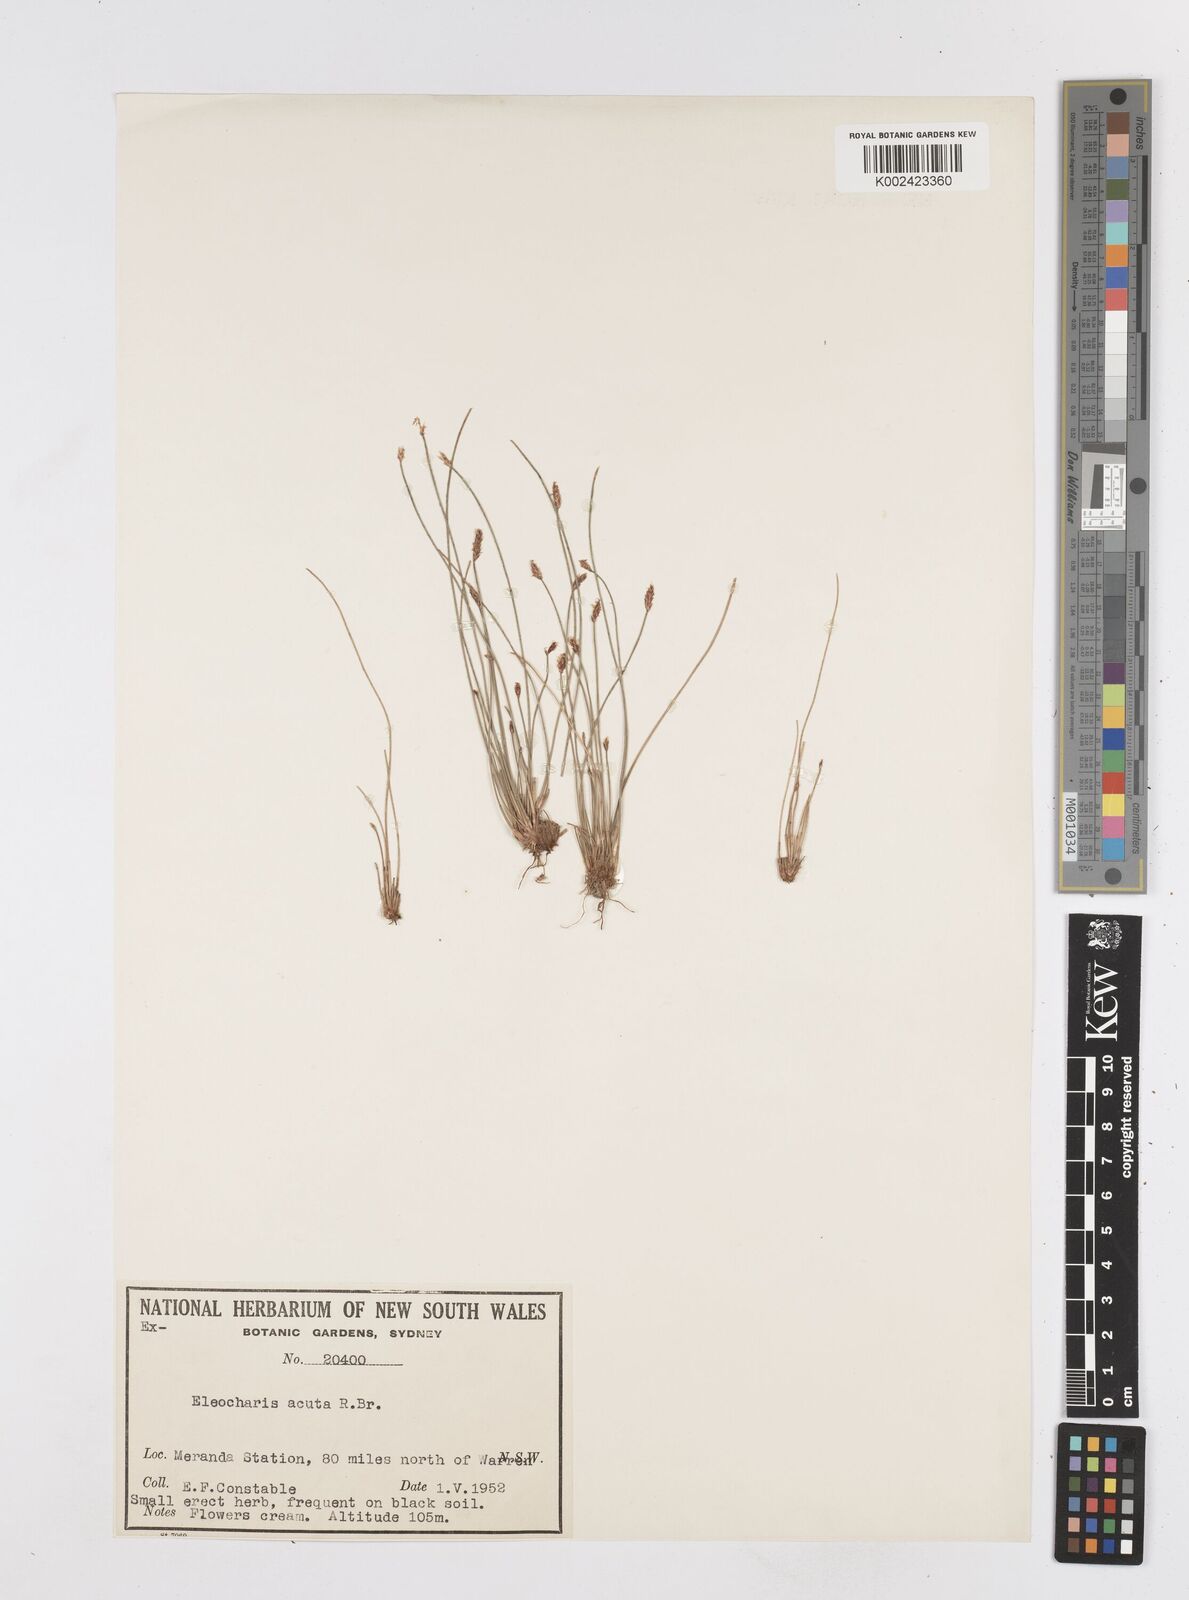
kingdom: Plantae
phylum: Tracheophyta
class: Liliopsida
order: Poales
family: Cyperaceae
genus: Eleocharis
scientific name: Eleocharis acuta
